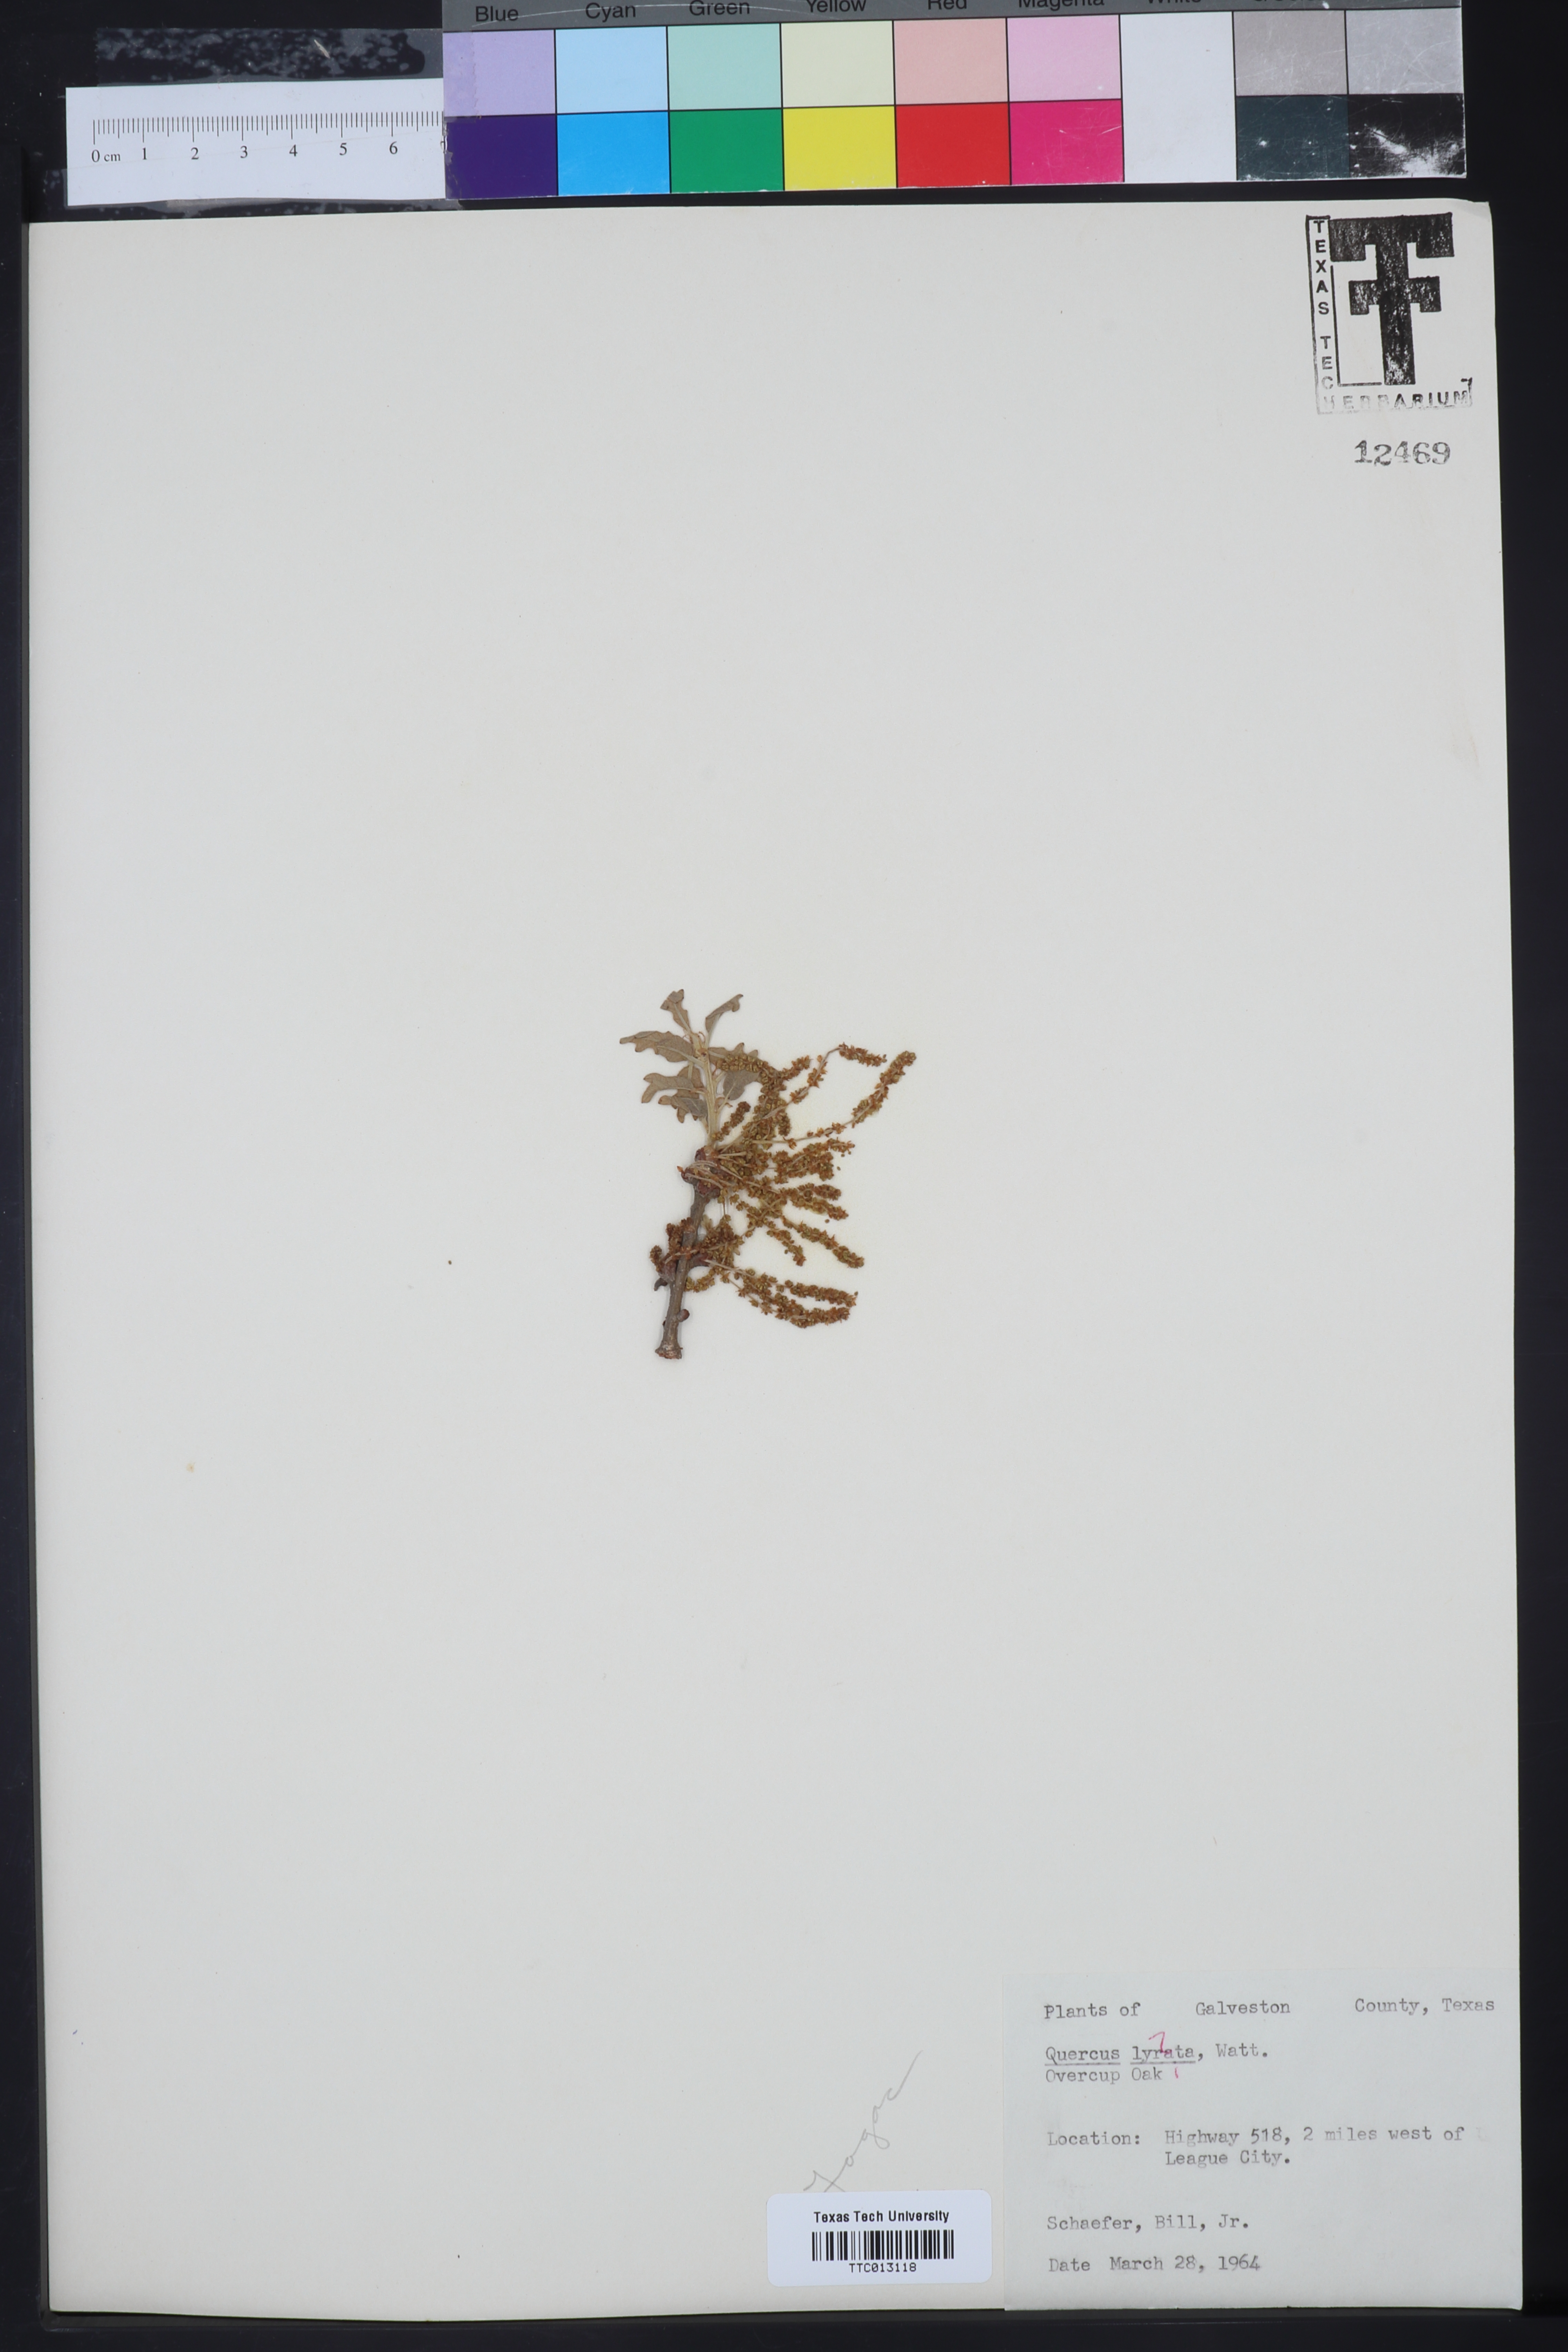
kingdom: Plantae
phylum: Tracheophyta
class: Magnoliopsida
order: Fagales
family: Fagaceae
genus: Quercus
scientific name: Quercus lyrata
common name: Overcup oak
